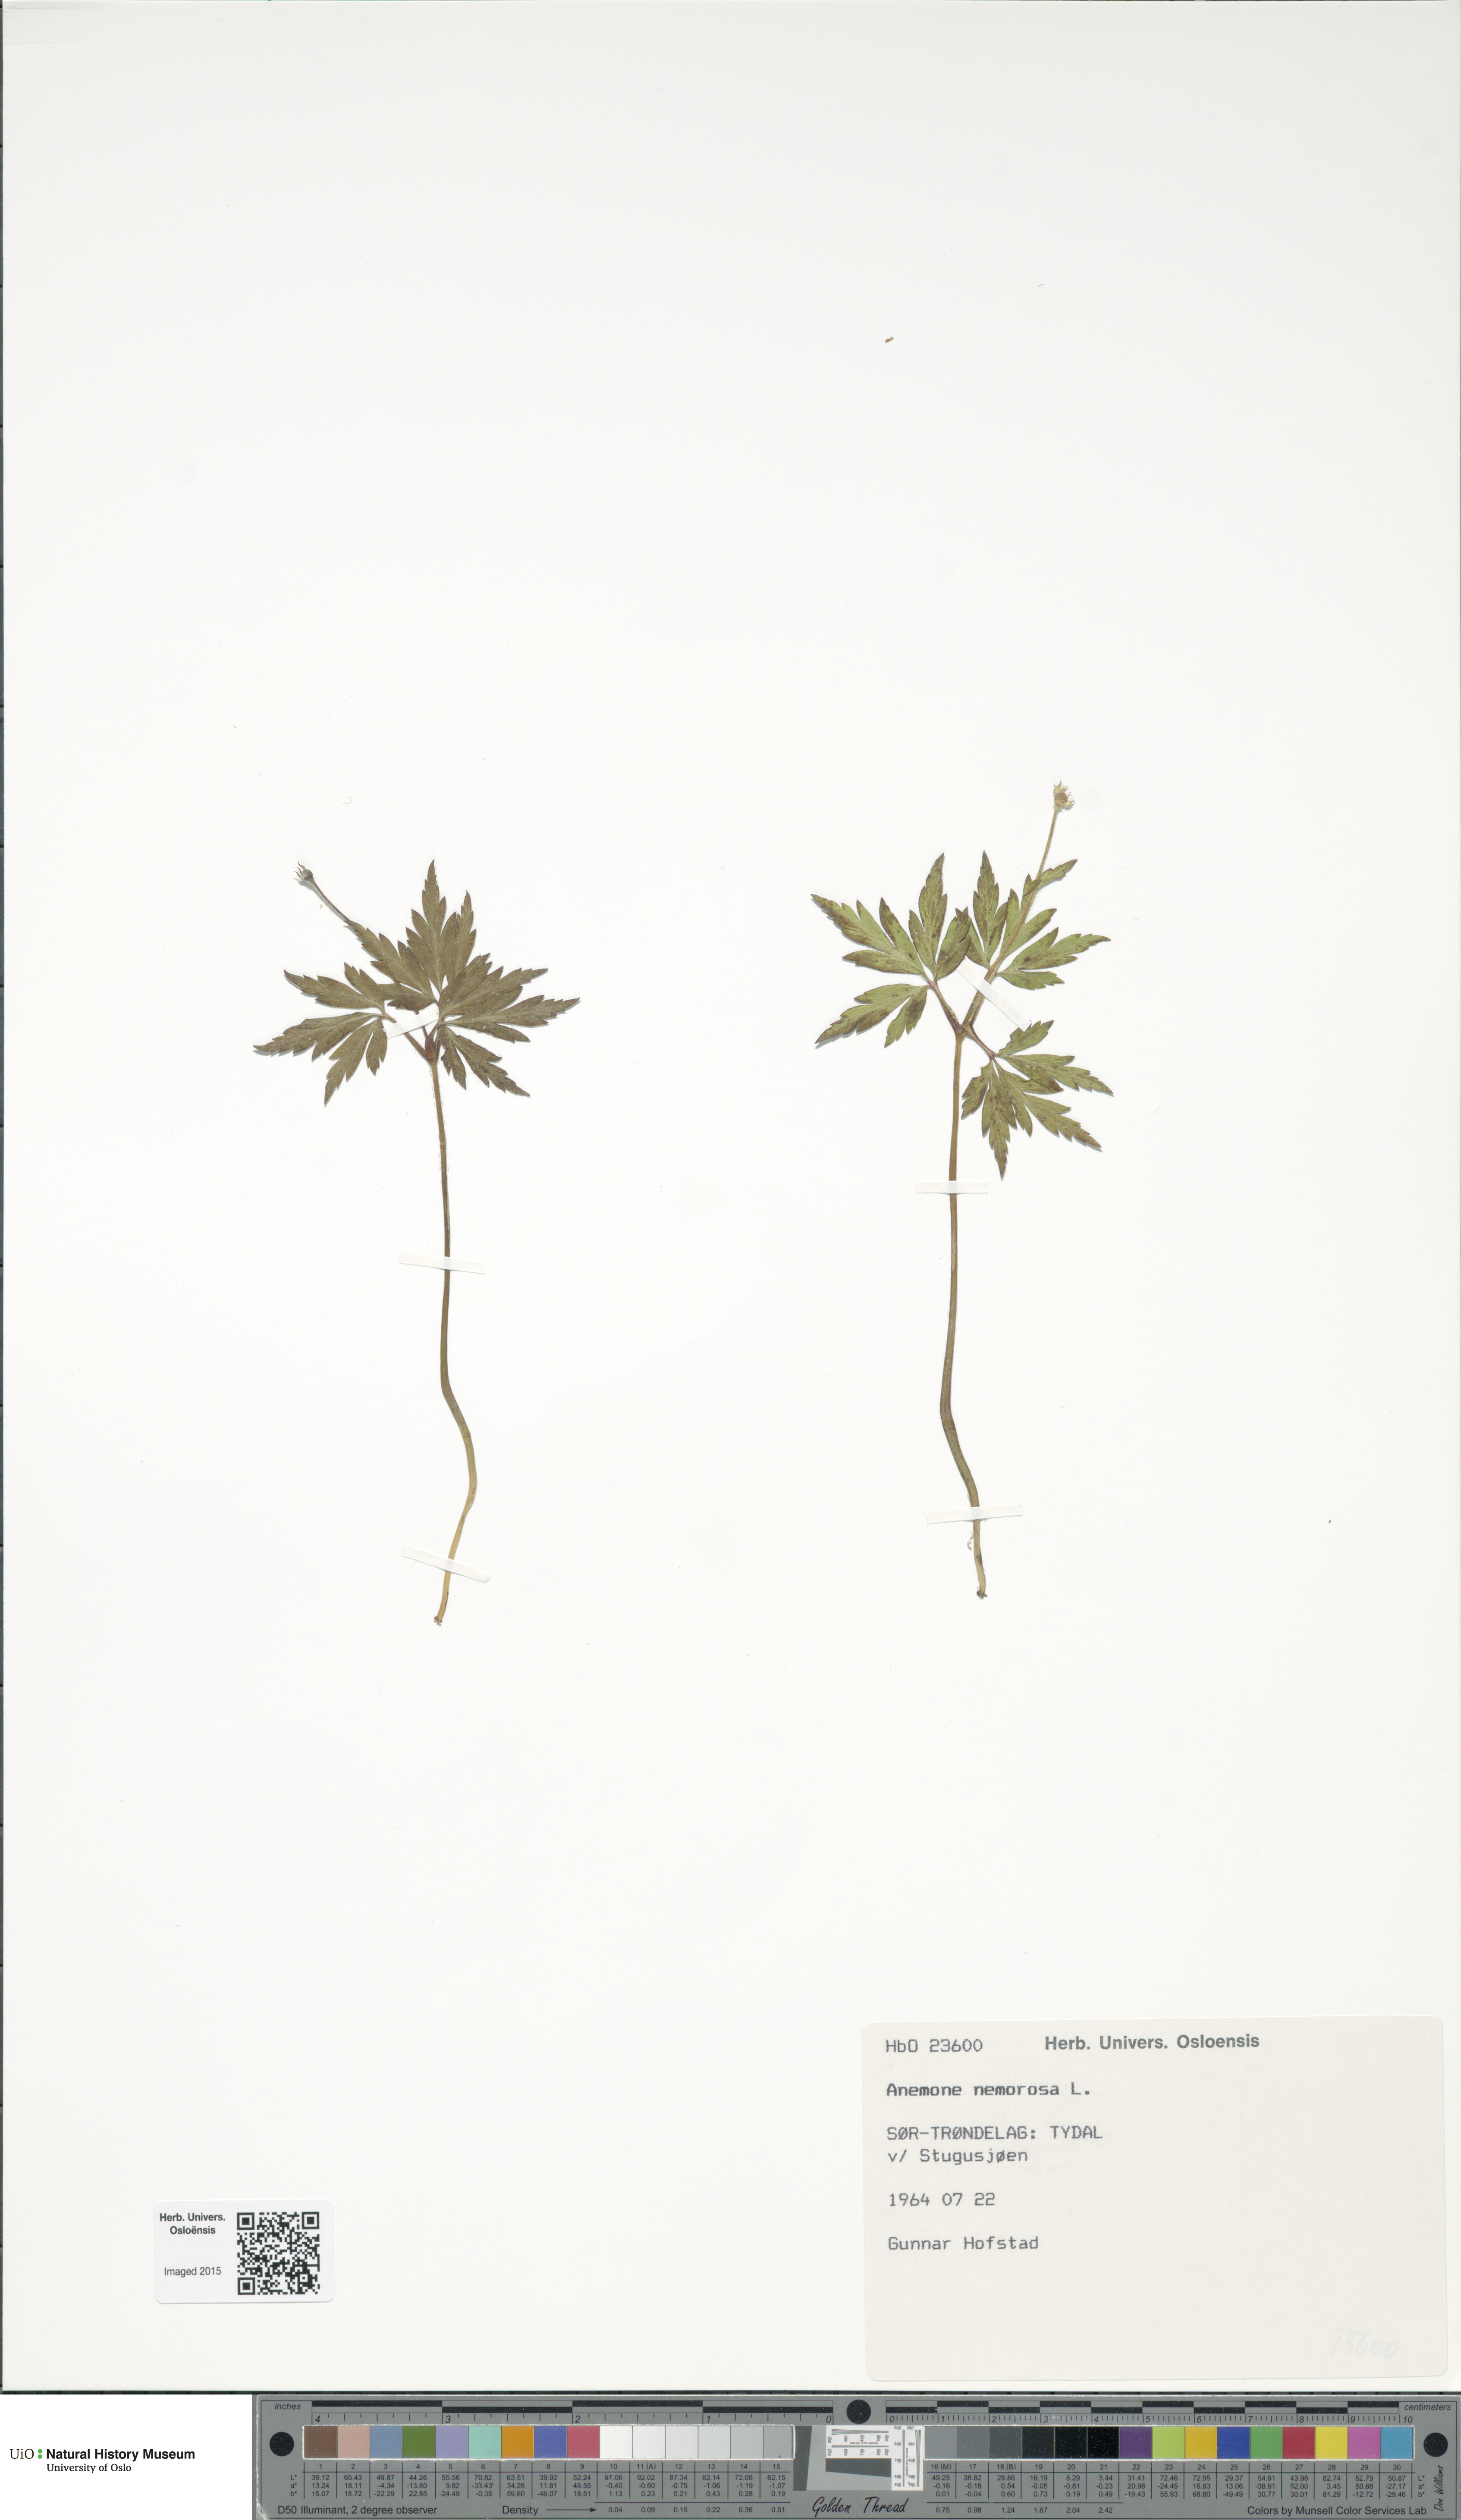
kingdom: Plantae
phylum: Tracheophyta
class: Magnoliopsida
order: Ranunculales
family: Ranunculaceae
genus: Anemone
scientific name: Anemone nemorosa
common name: Wood anemone
